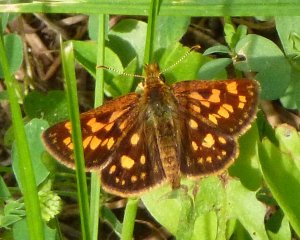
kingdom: Animalia
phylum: Arthropoda
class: Insecta
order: Lepidoptera
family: Hesperiidae
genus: Carterocephalus
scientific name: Carterocephalus palaemon
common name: Chequered Skipper
